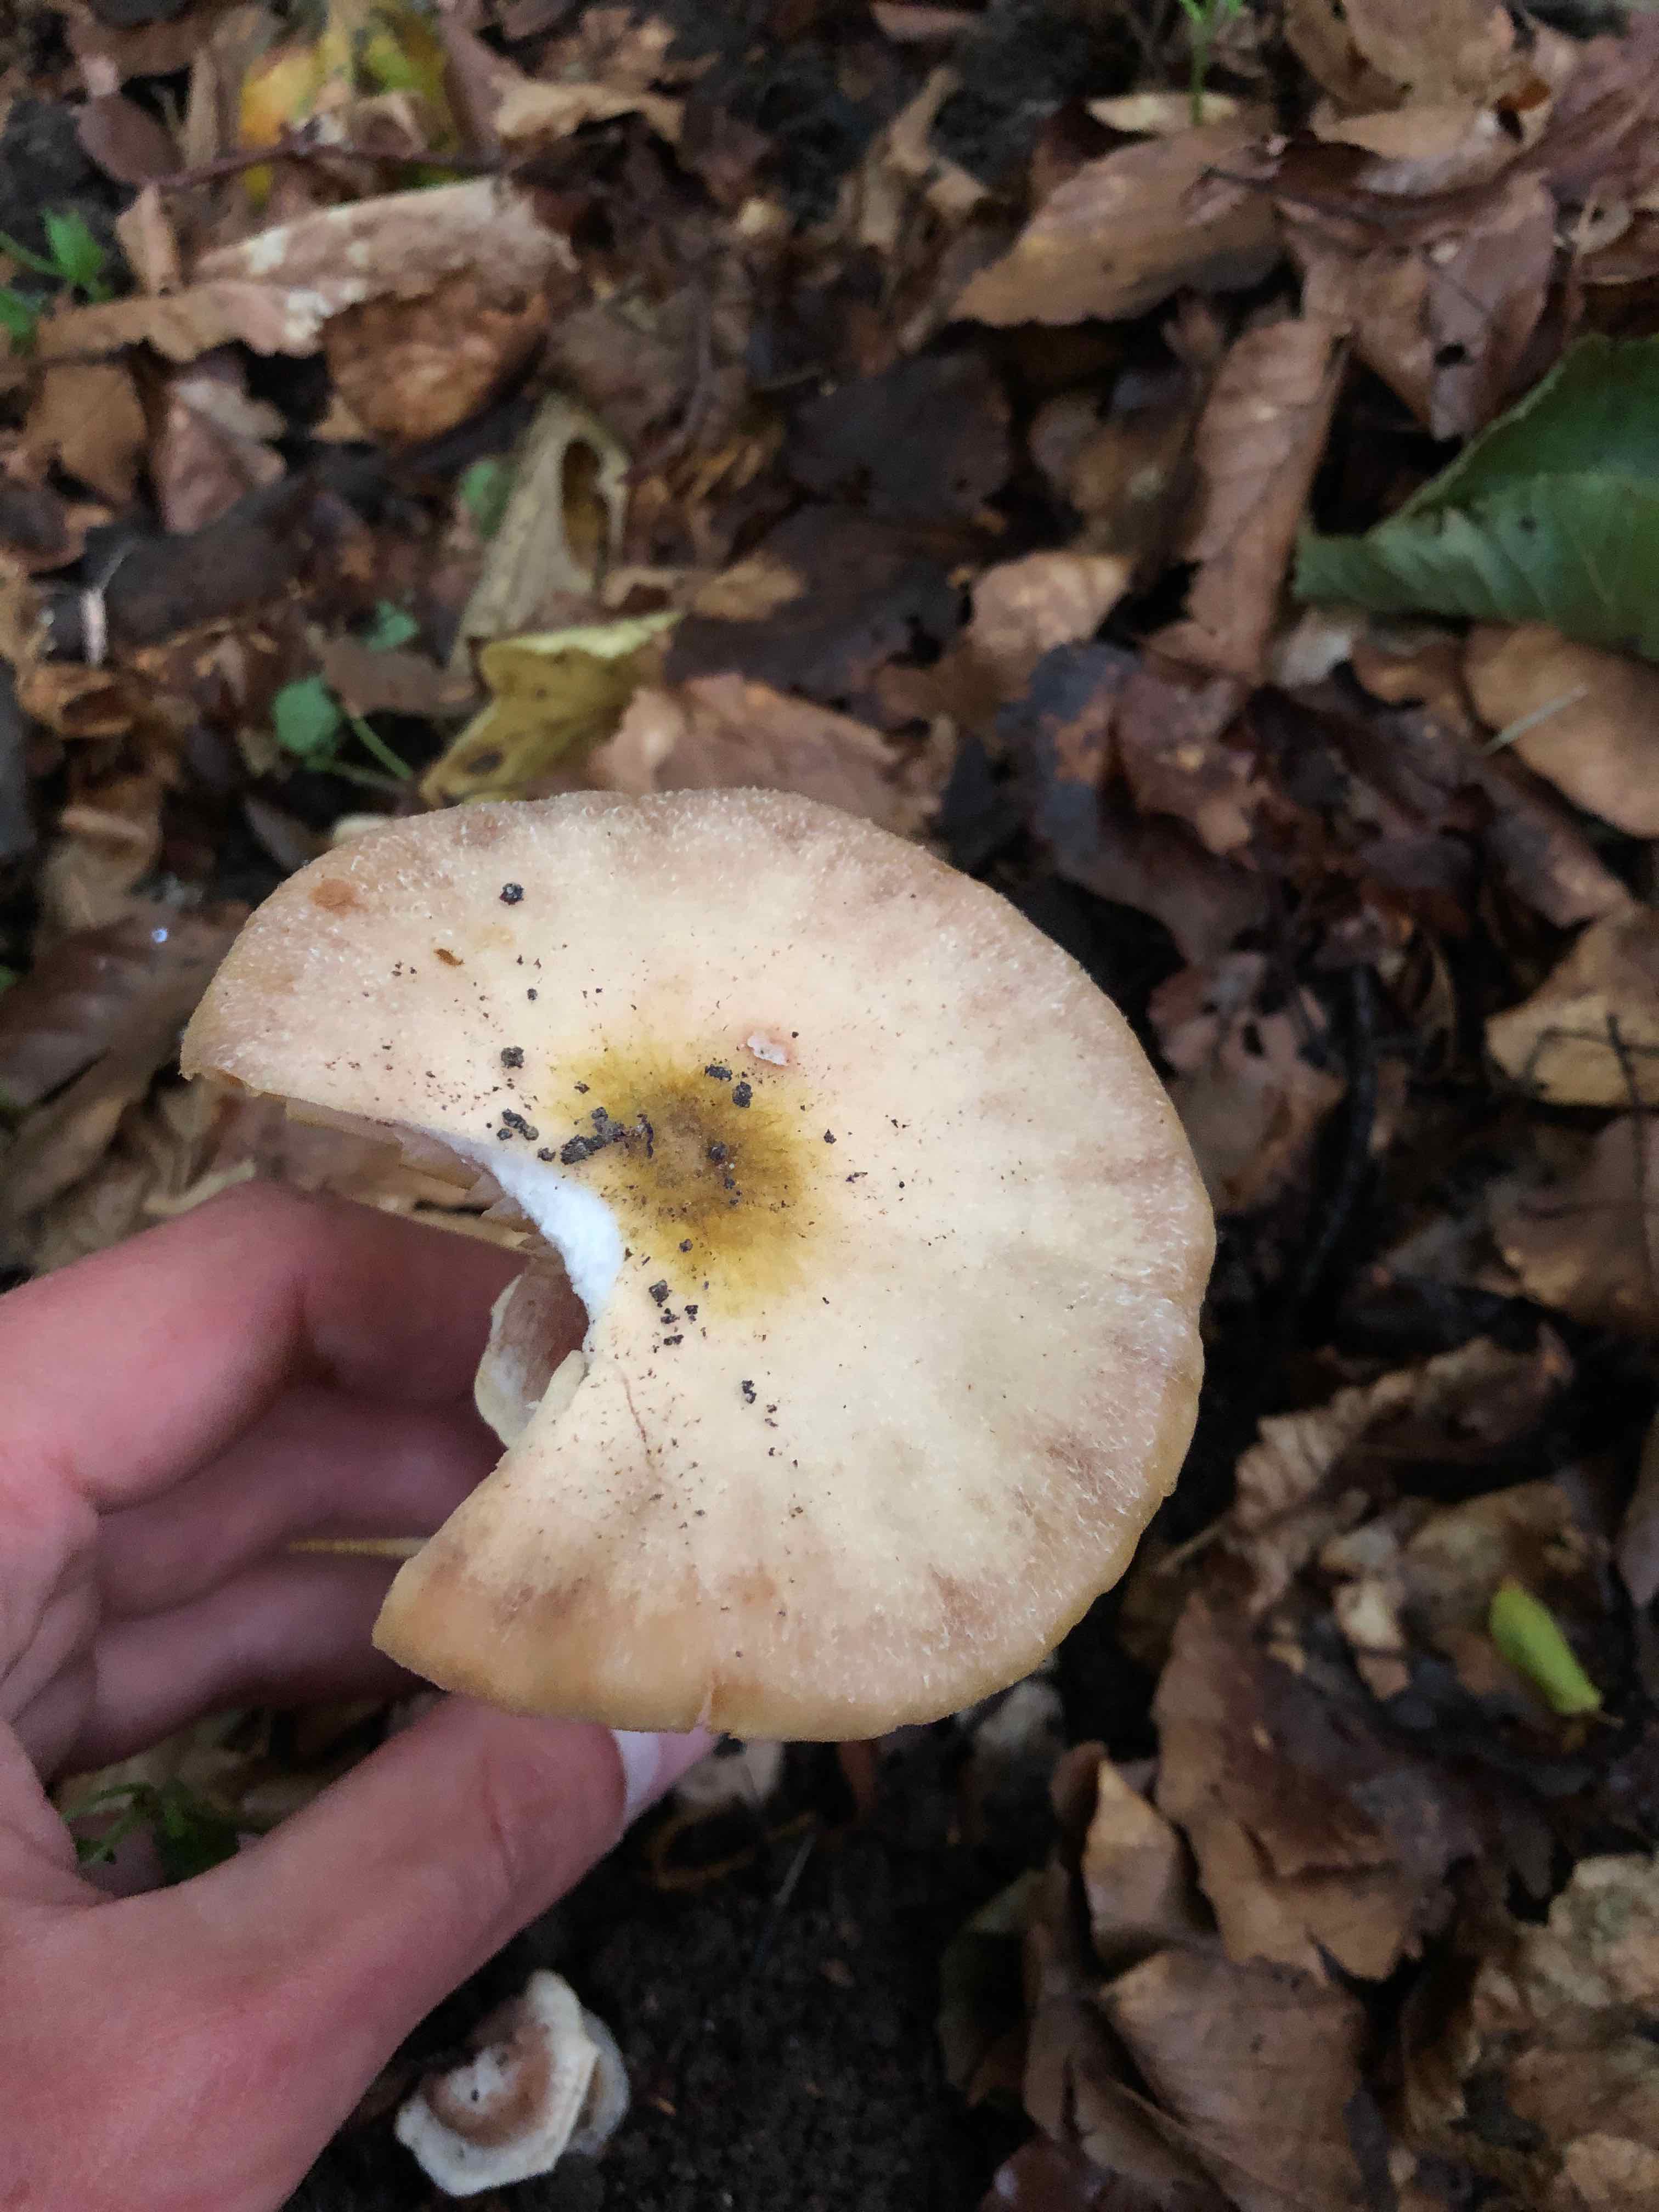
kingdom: Fungi
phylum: Basidiomycota
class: Agaricomycetes
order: Agaricales
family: Physalacriaceae
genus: Armillaria
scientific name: Armillaria
